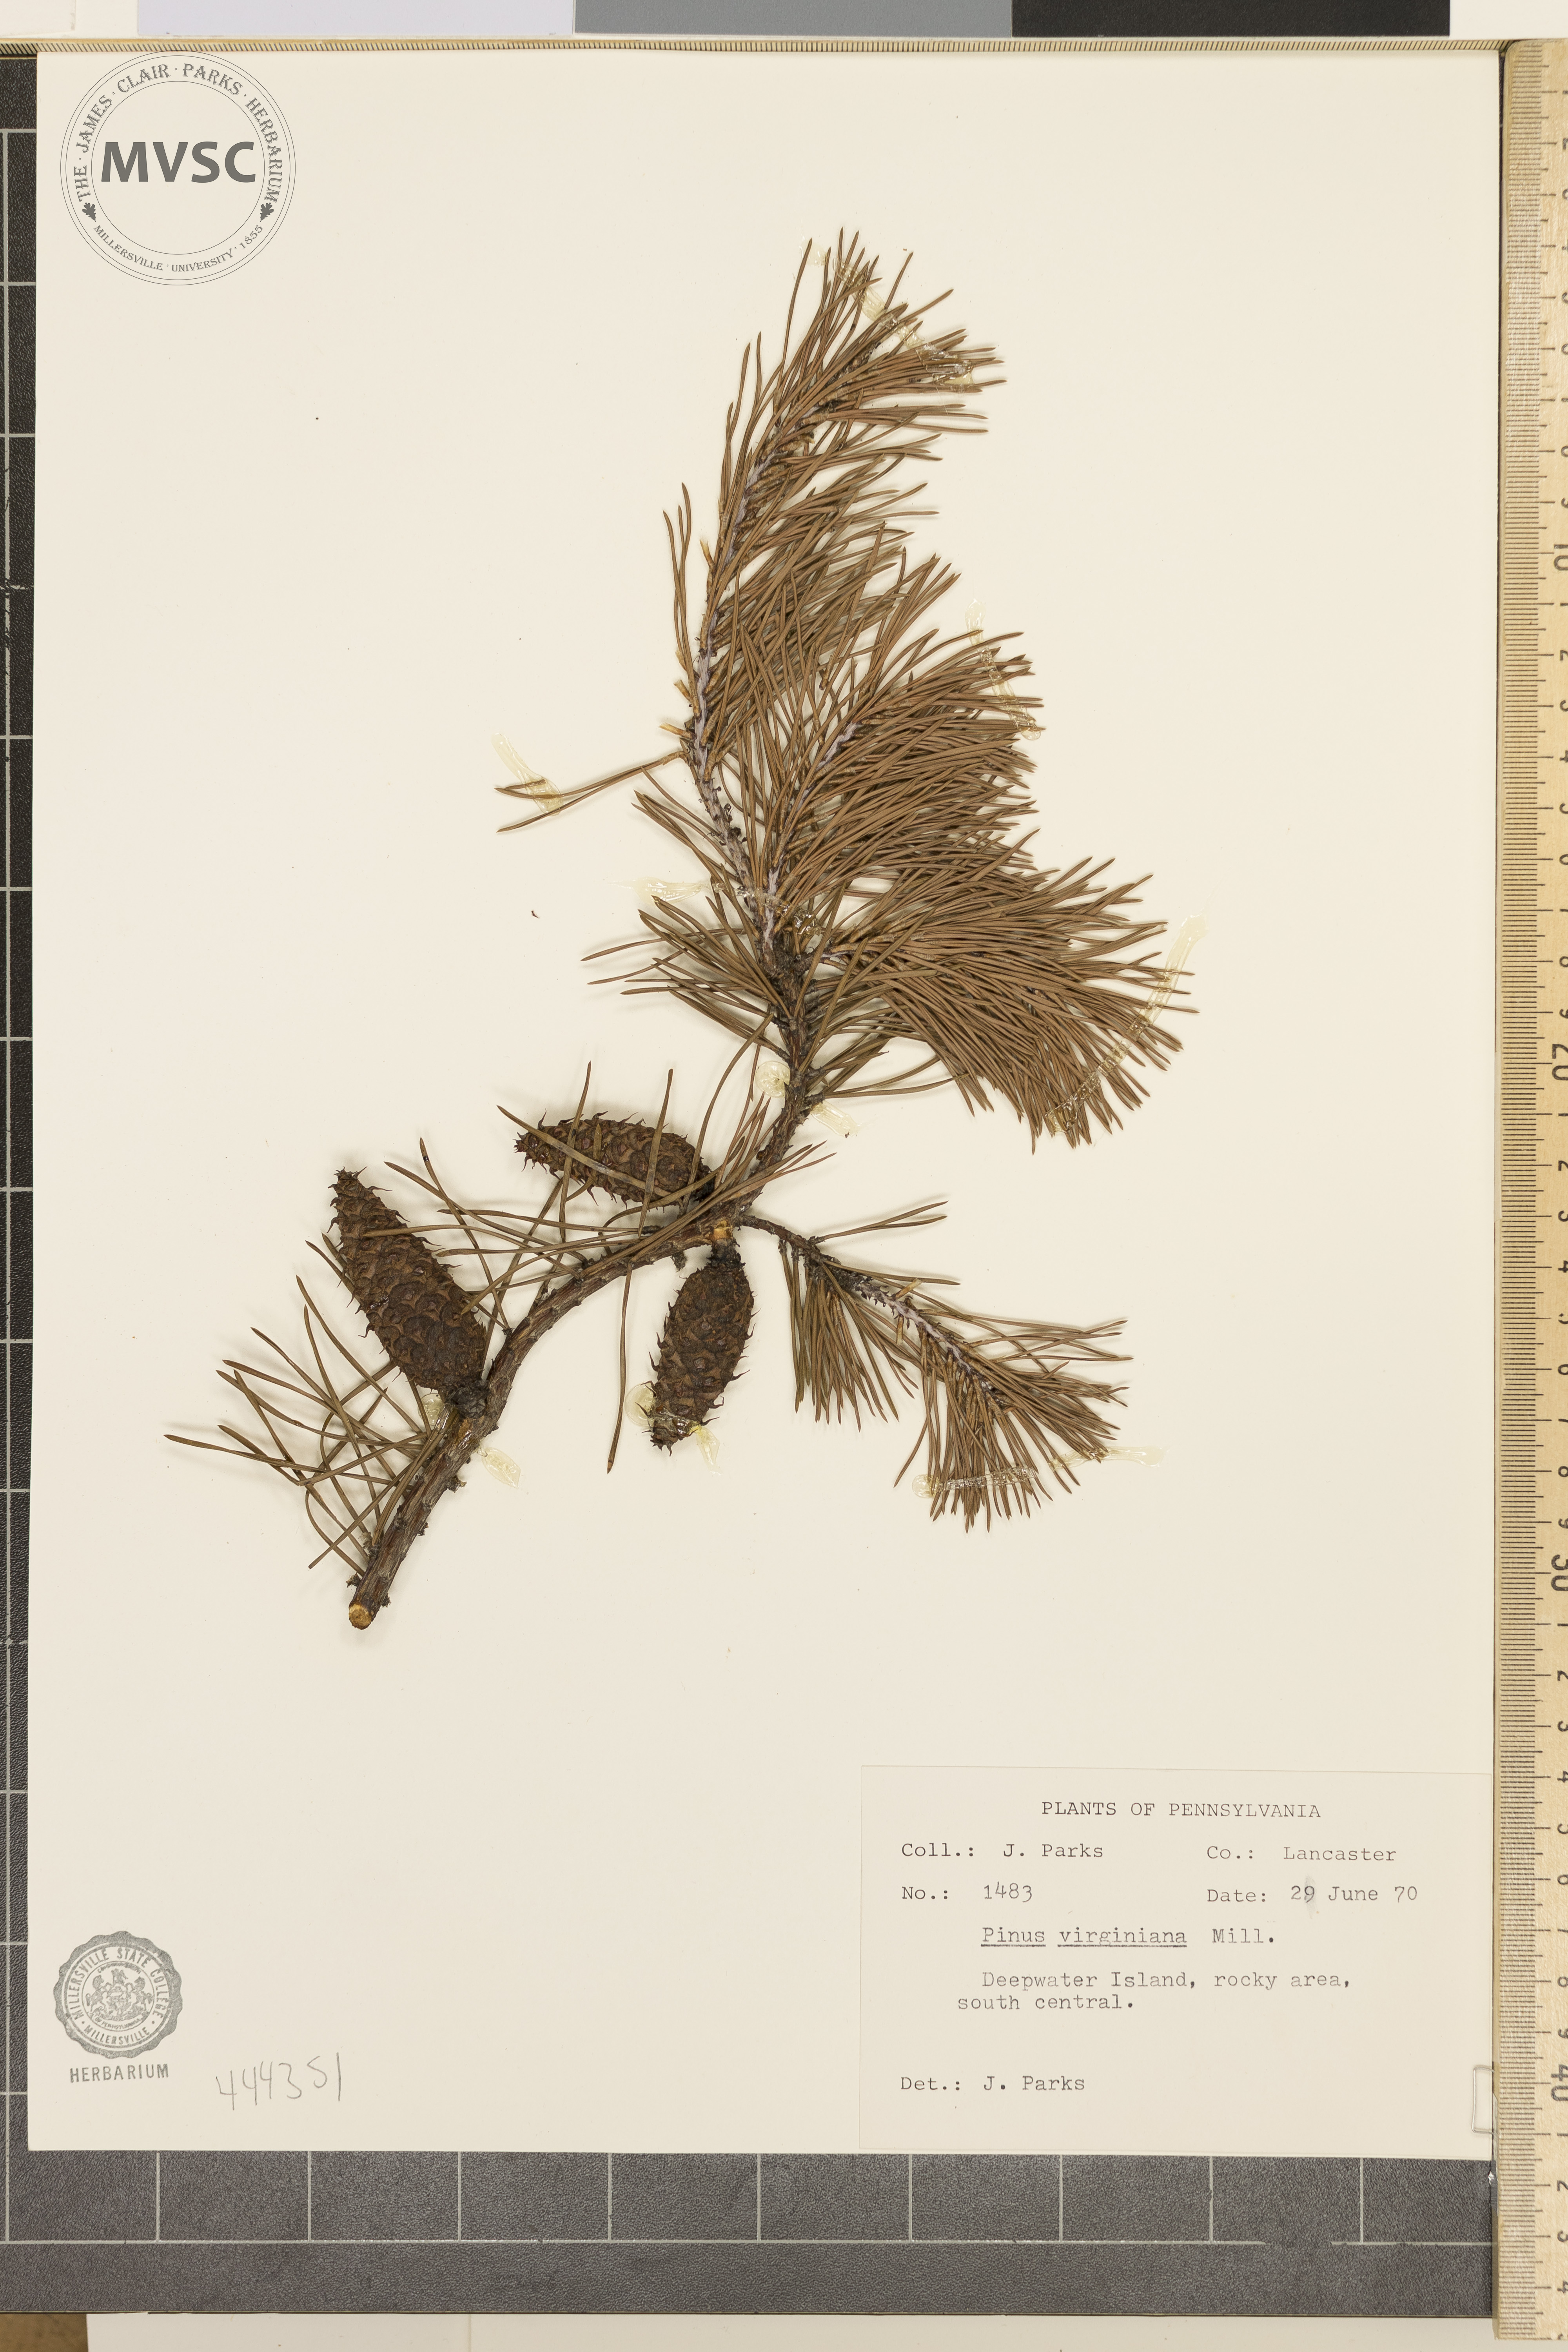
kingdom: Plantae
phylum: Tracheophyta
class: Pinopsida
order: Pinales
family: Pinaceae
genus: Pinus
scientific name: Pinus virginiana
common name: Scrub pine
